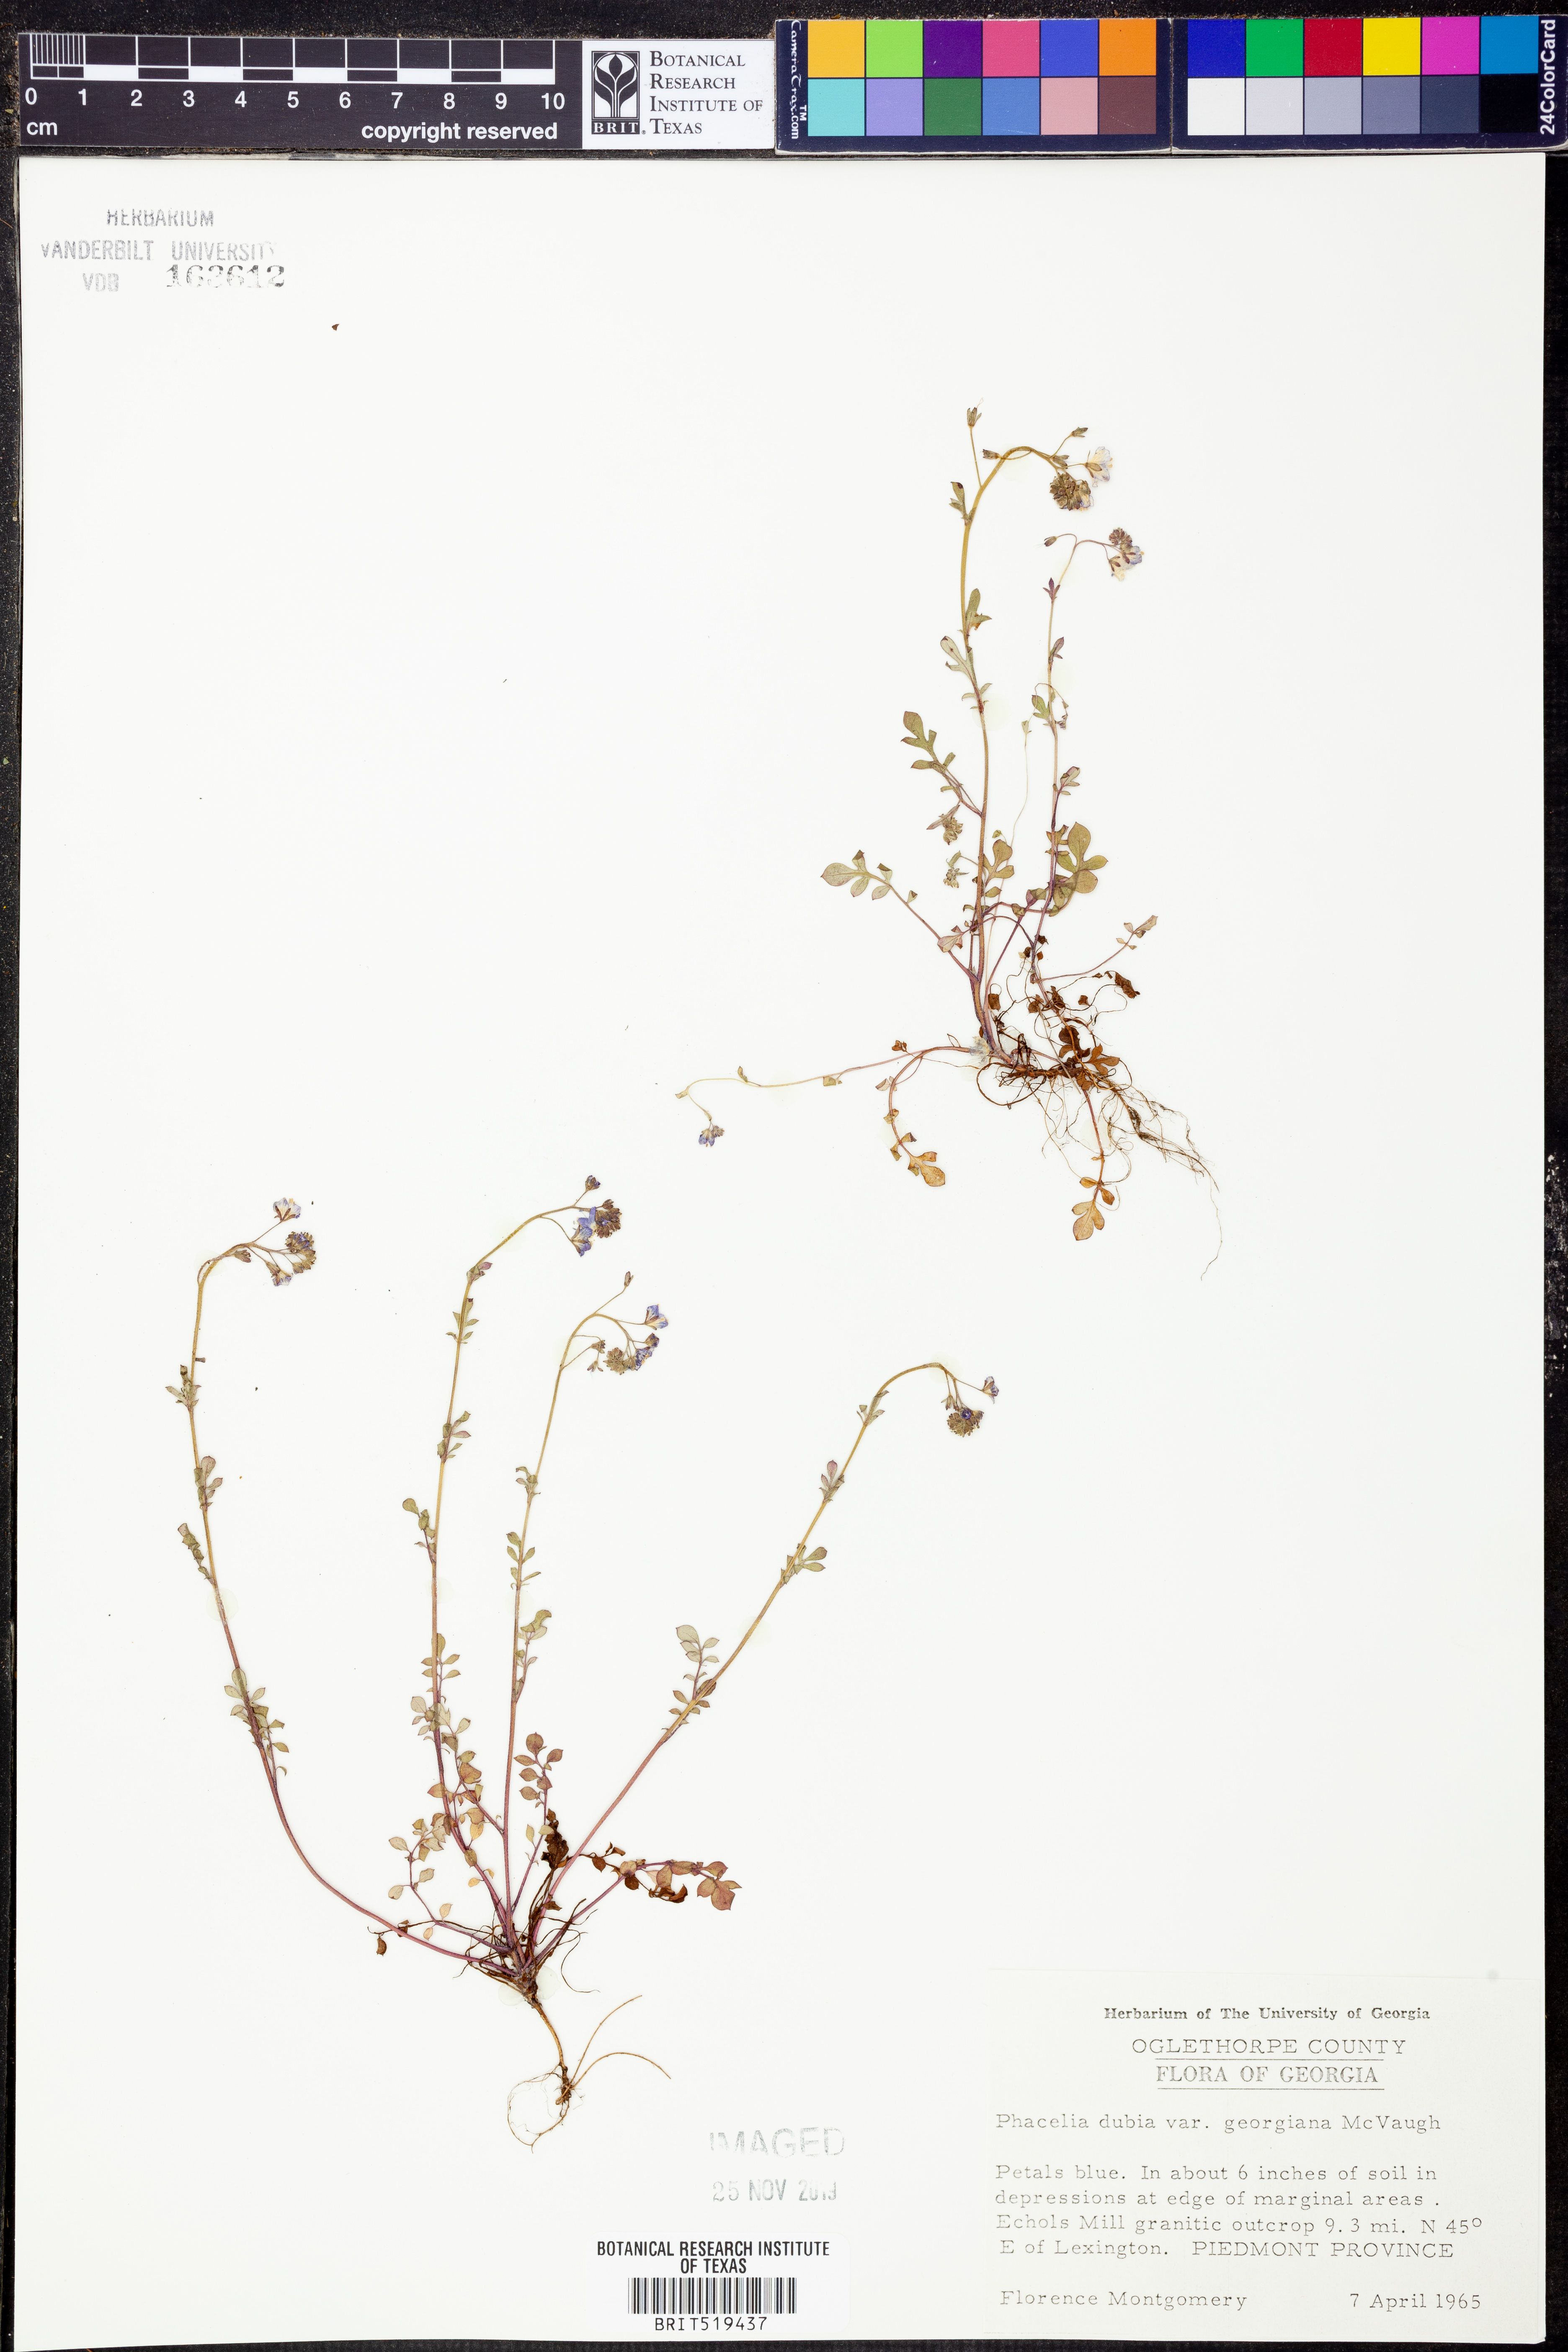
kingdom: Plantae
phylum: Tracheophyta
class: Magnoliopsida
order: Boraginales
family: Hydrophyllaceae
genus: Phacelia
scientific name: Phacelia dubia
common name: Appalachian phacelia
